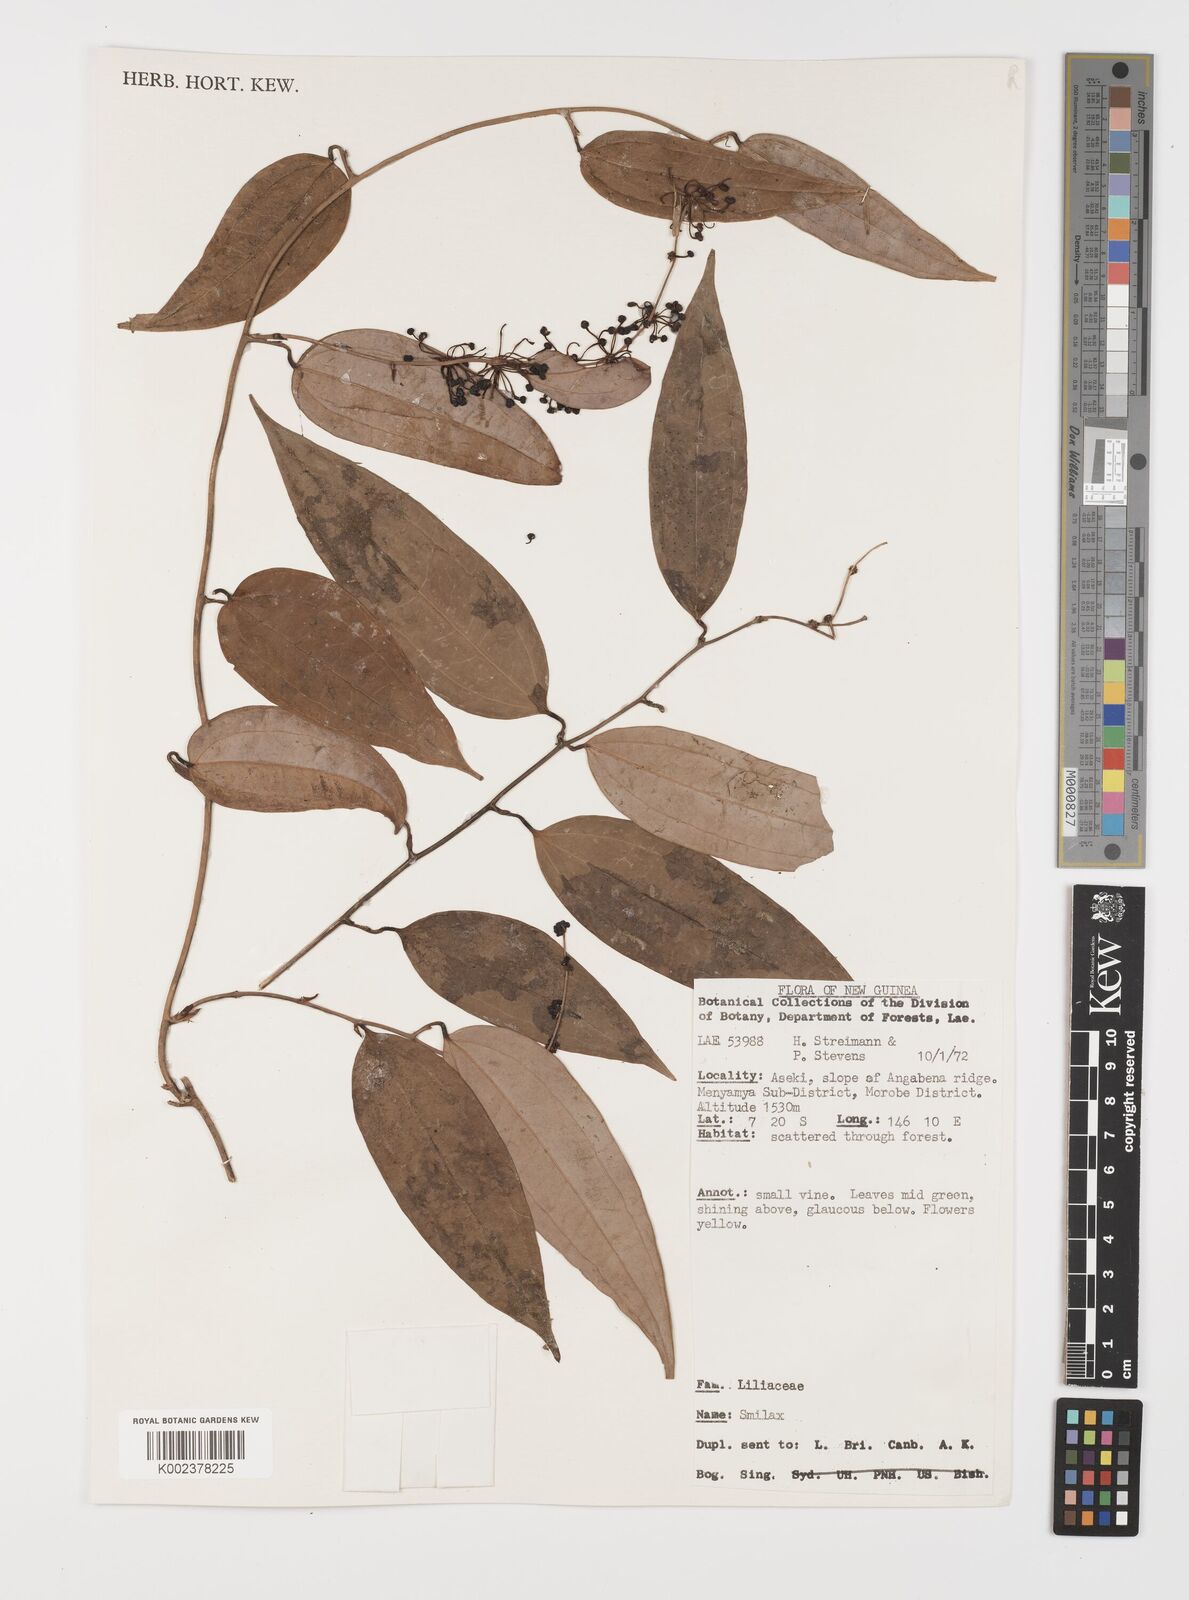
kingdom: Plantae
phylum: Tracheophyta
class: Liliopsida
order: Liliales
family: Smilacaceae
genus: Smilax
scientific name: Smilax
